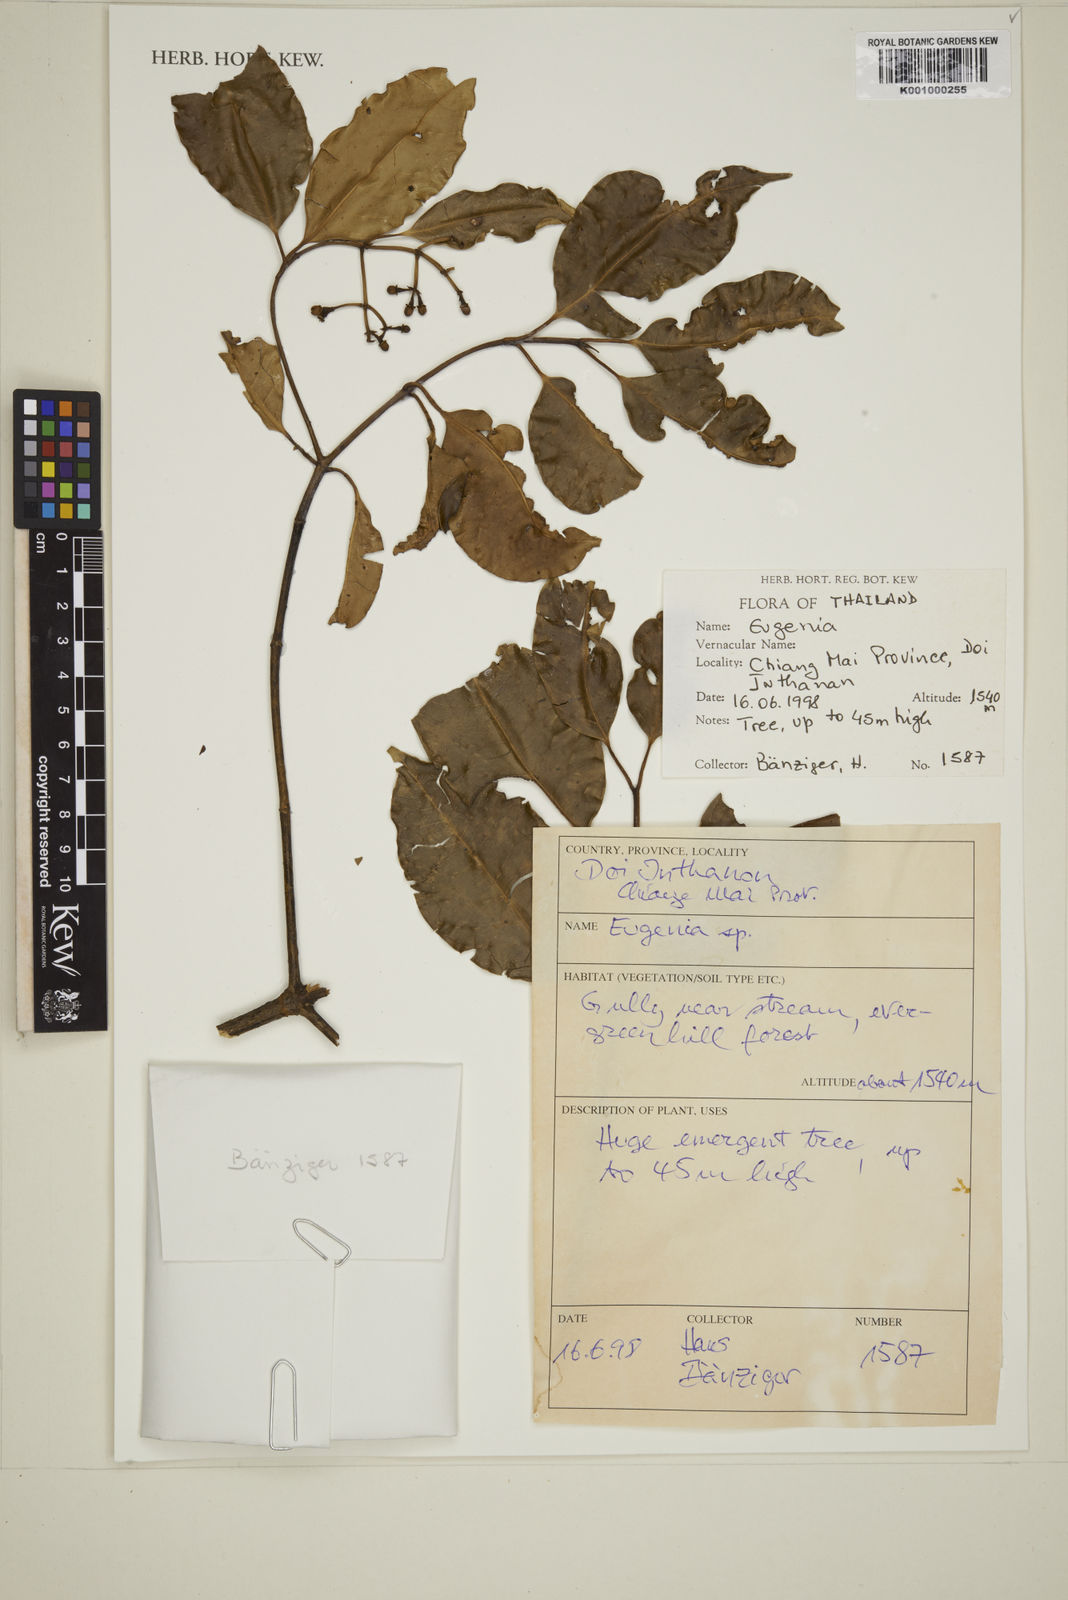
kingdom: Plantae
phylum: Tracheophyta
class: Magnoliopsida
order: Myrtales
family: Myrtaceae
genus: Eugenia
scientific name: Eugenia
